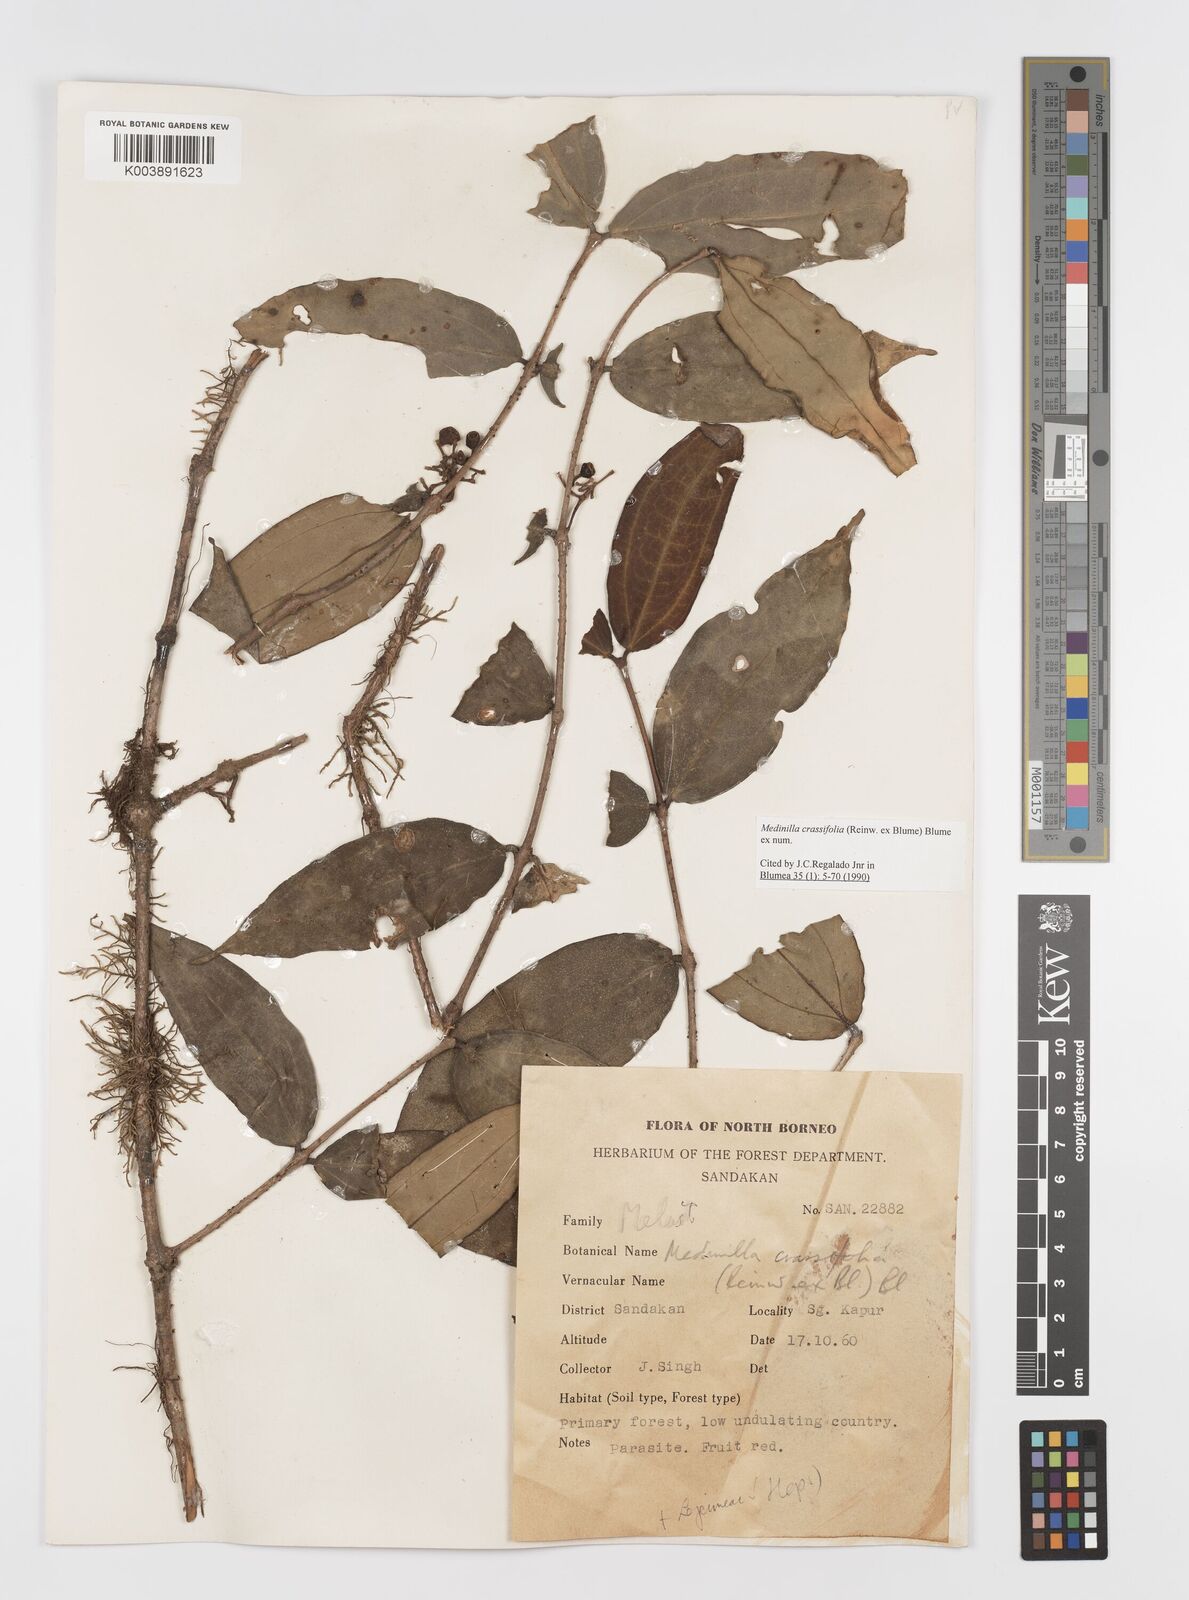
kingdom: Plantae
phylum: Tracheophyta
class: Magnoliopsida
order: Myrtales
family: Melastomataceae
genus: Medinilla
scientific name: Medinilla crassifolia
